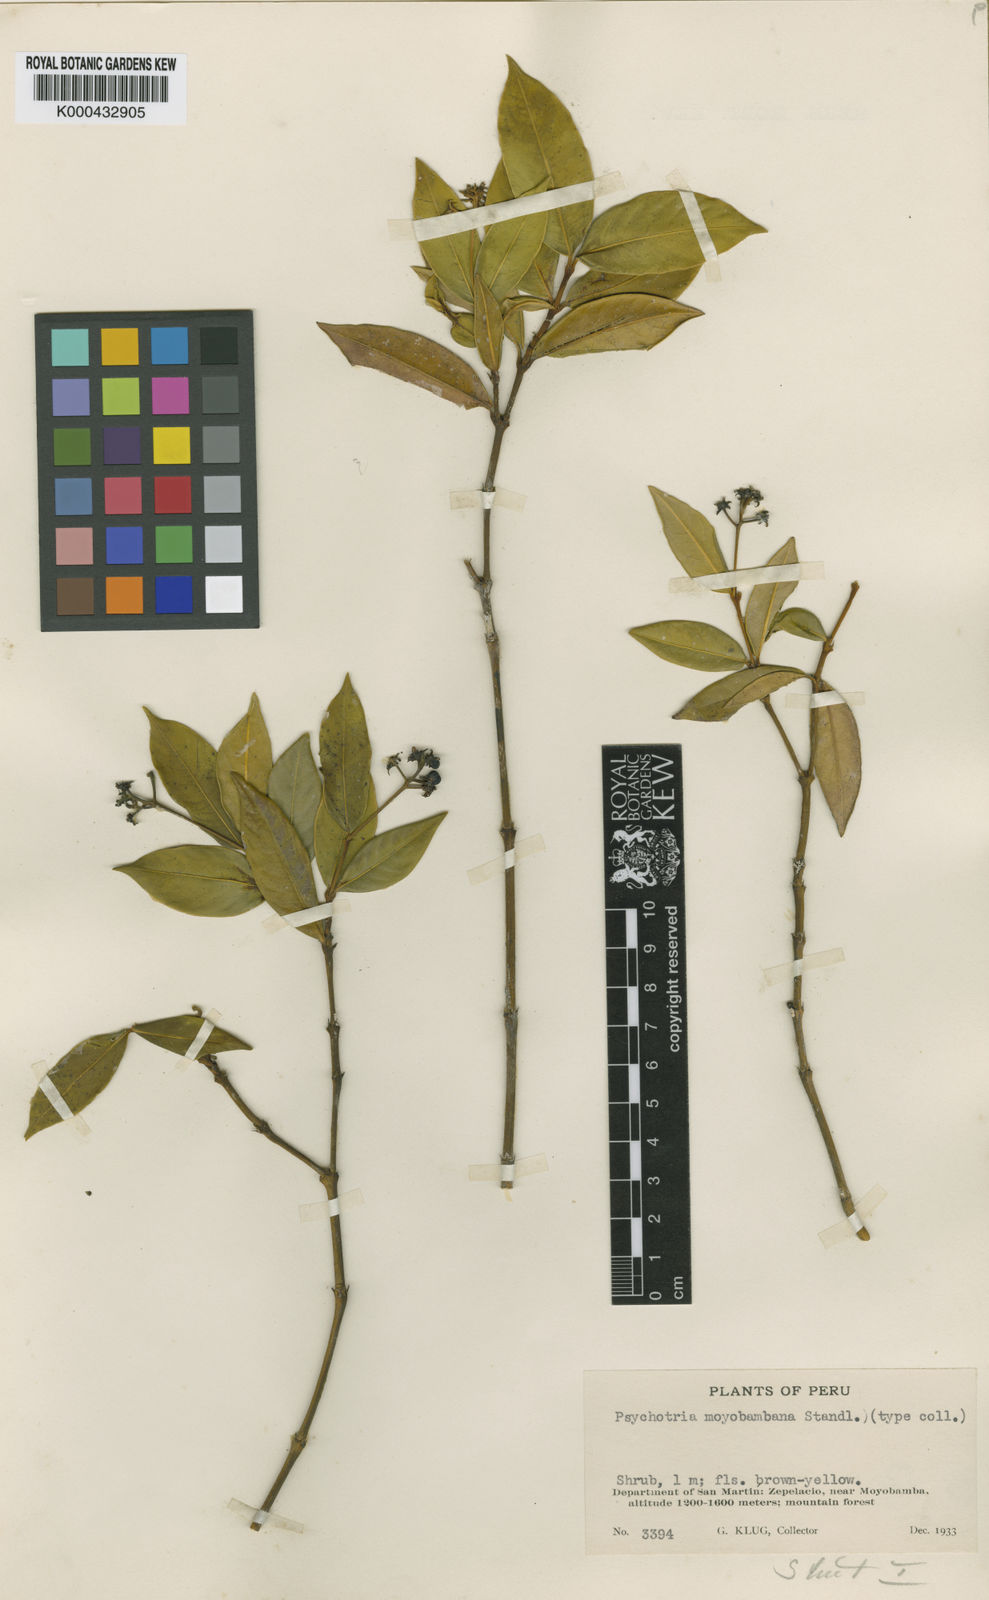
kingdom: Plantae
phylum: Tracheophyta
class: Magnoliopsida
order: Gentianales
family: Rubiaceae
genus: Palicourea
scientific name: Palicourea moyobambana
